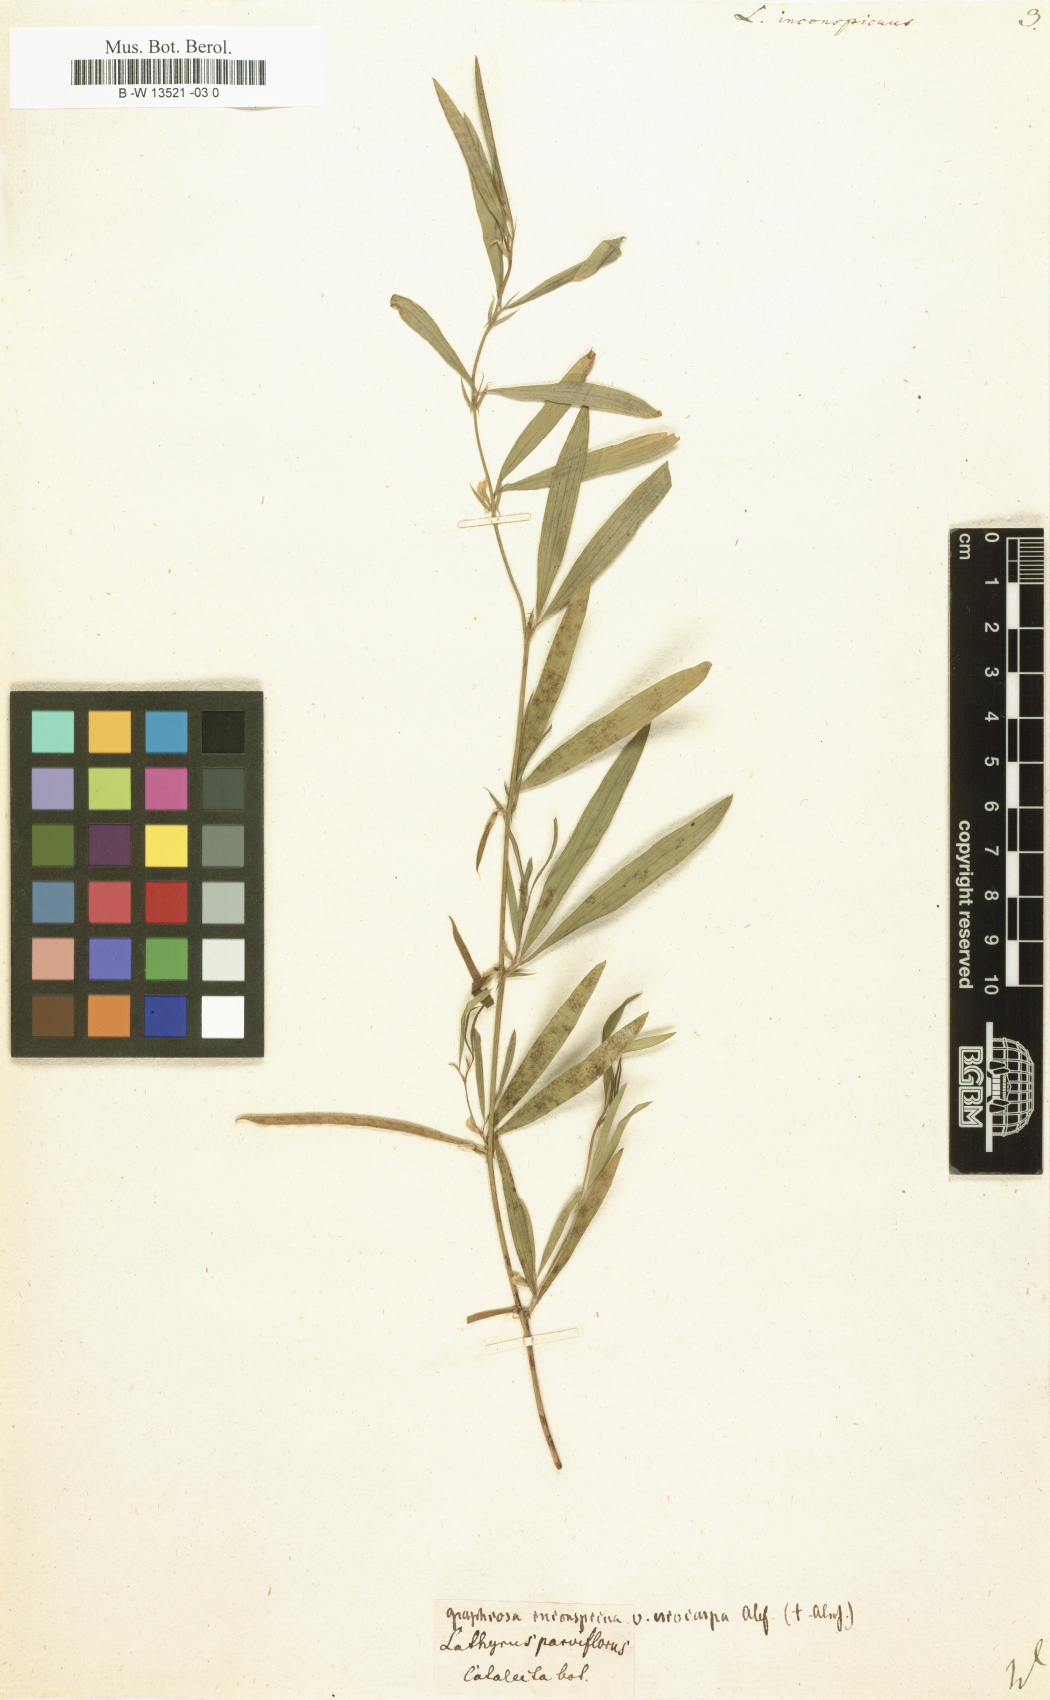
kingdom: Plantae
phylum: Tracheophyta
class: Magnoliopsida
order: Fabales
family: Fabaceae
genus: Lathyrus
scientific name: Lathyrus inconspicuus
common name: Inconspicuous pea
